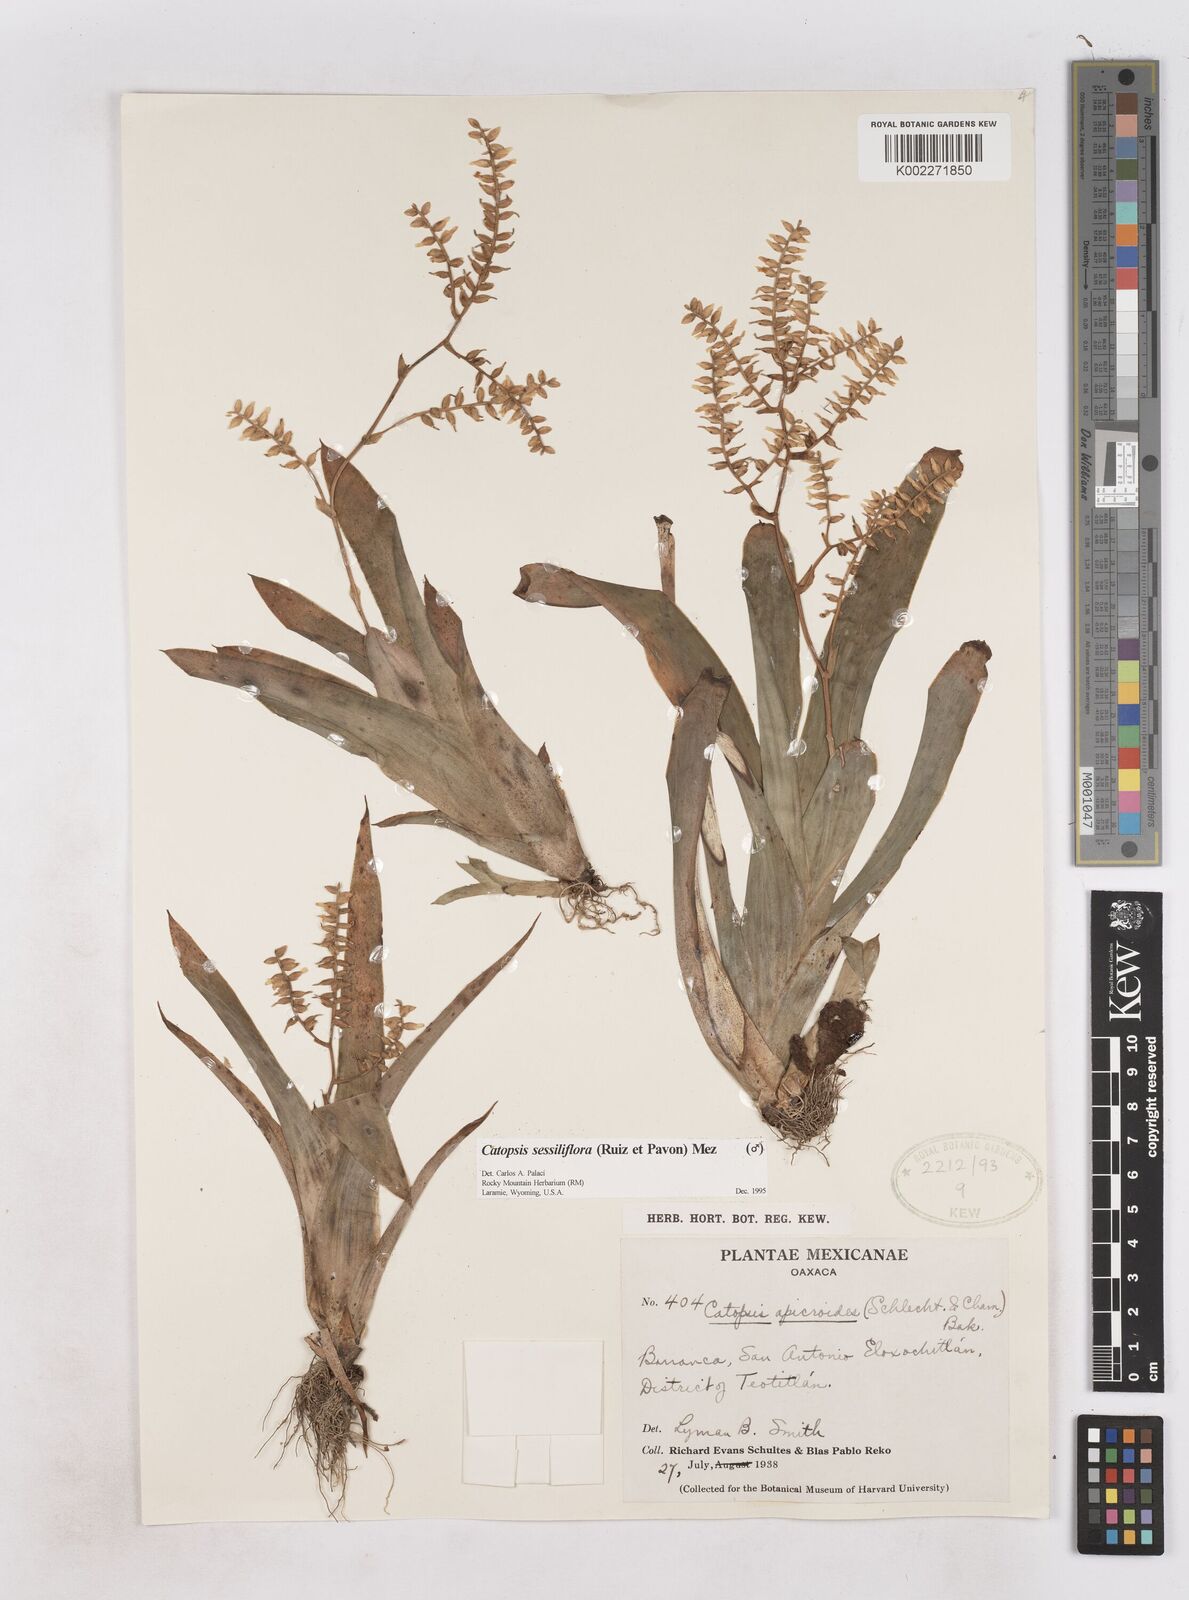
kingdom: Plantae
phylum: Tracheophyta
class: Liliopsida
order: Poales
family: Bromeliaceae
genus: Catopsis
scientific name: Catopsis sessiliflora
